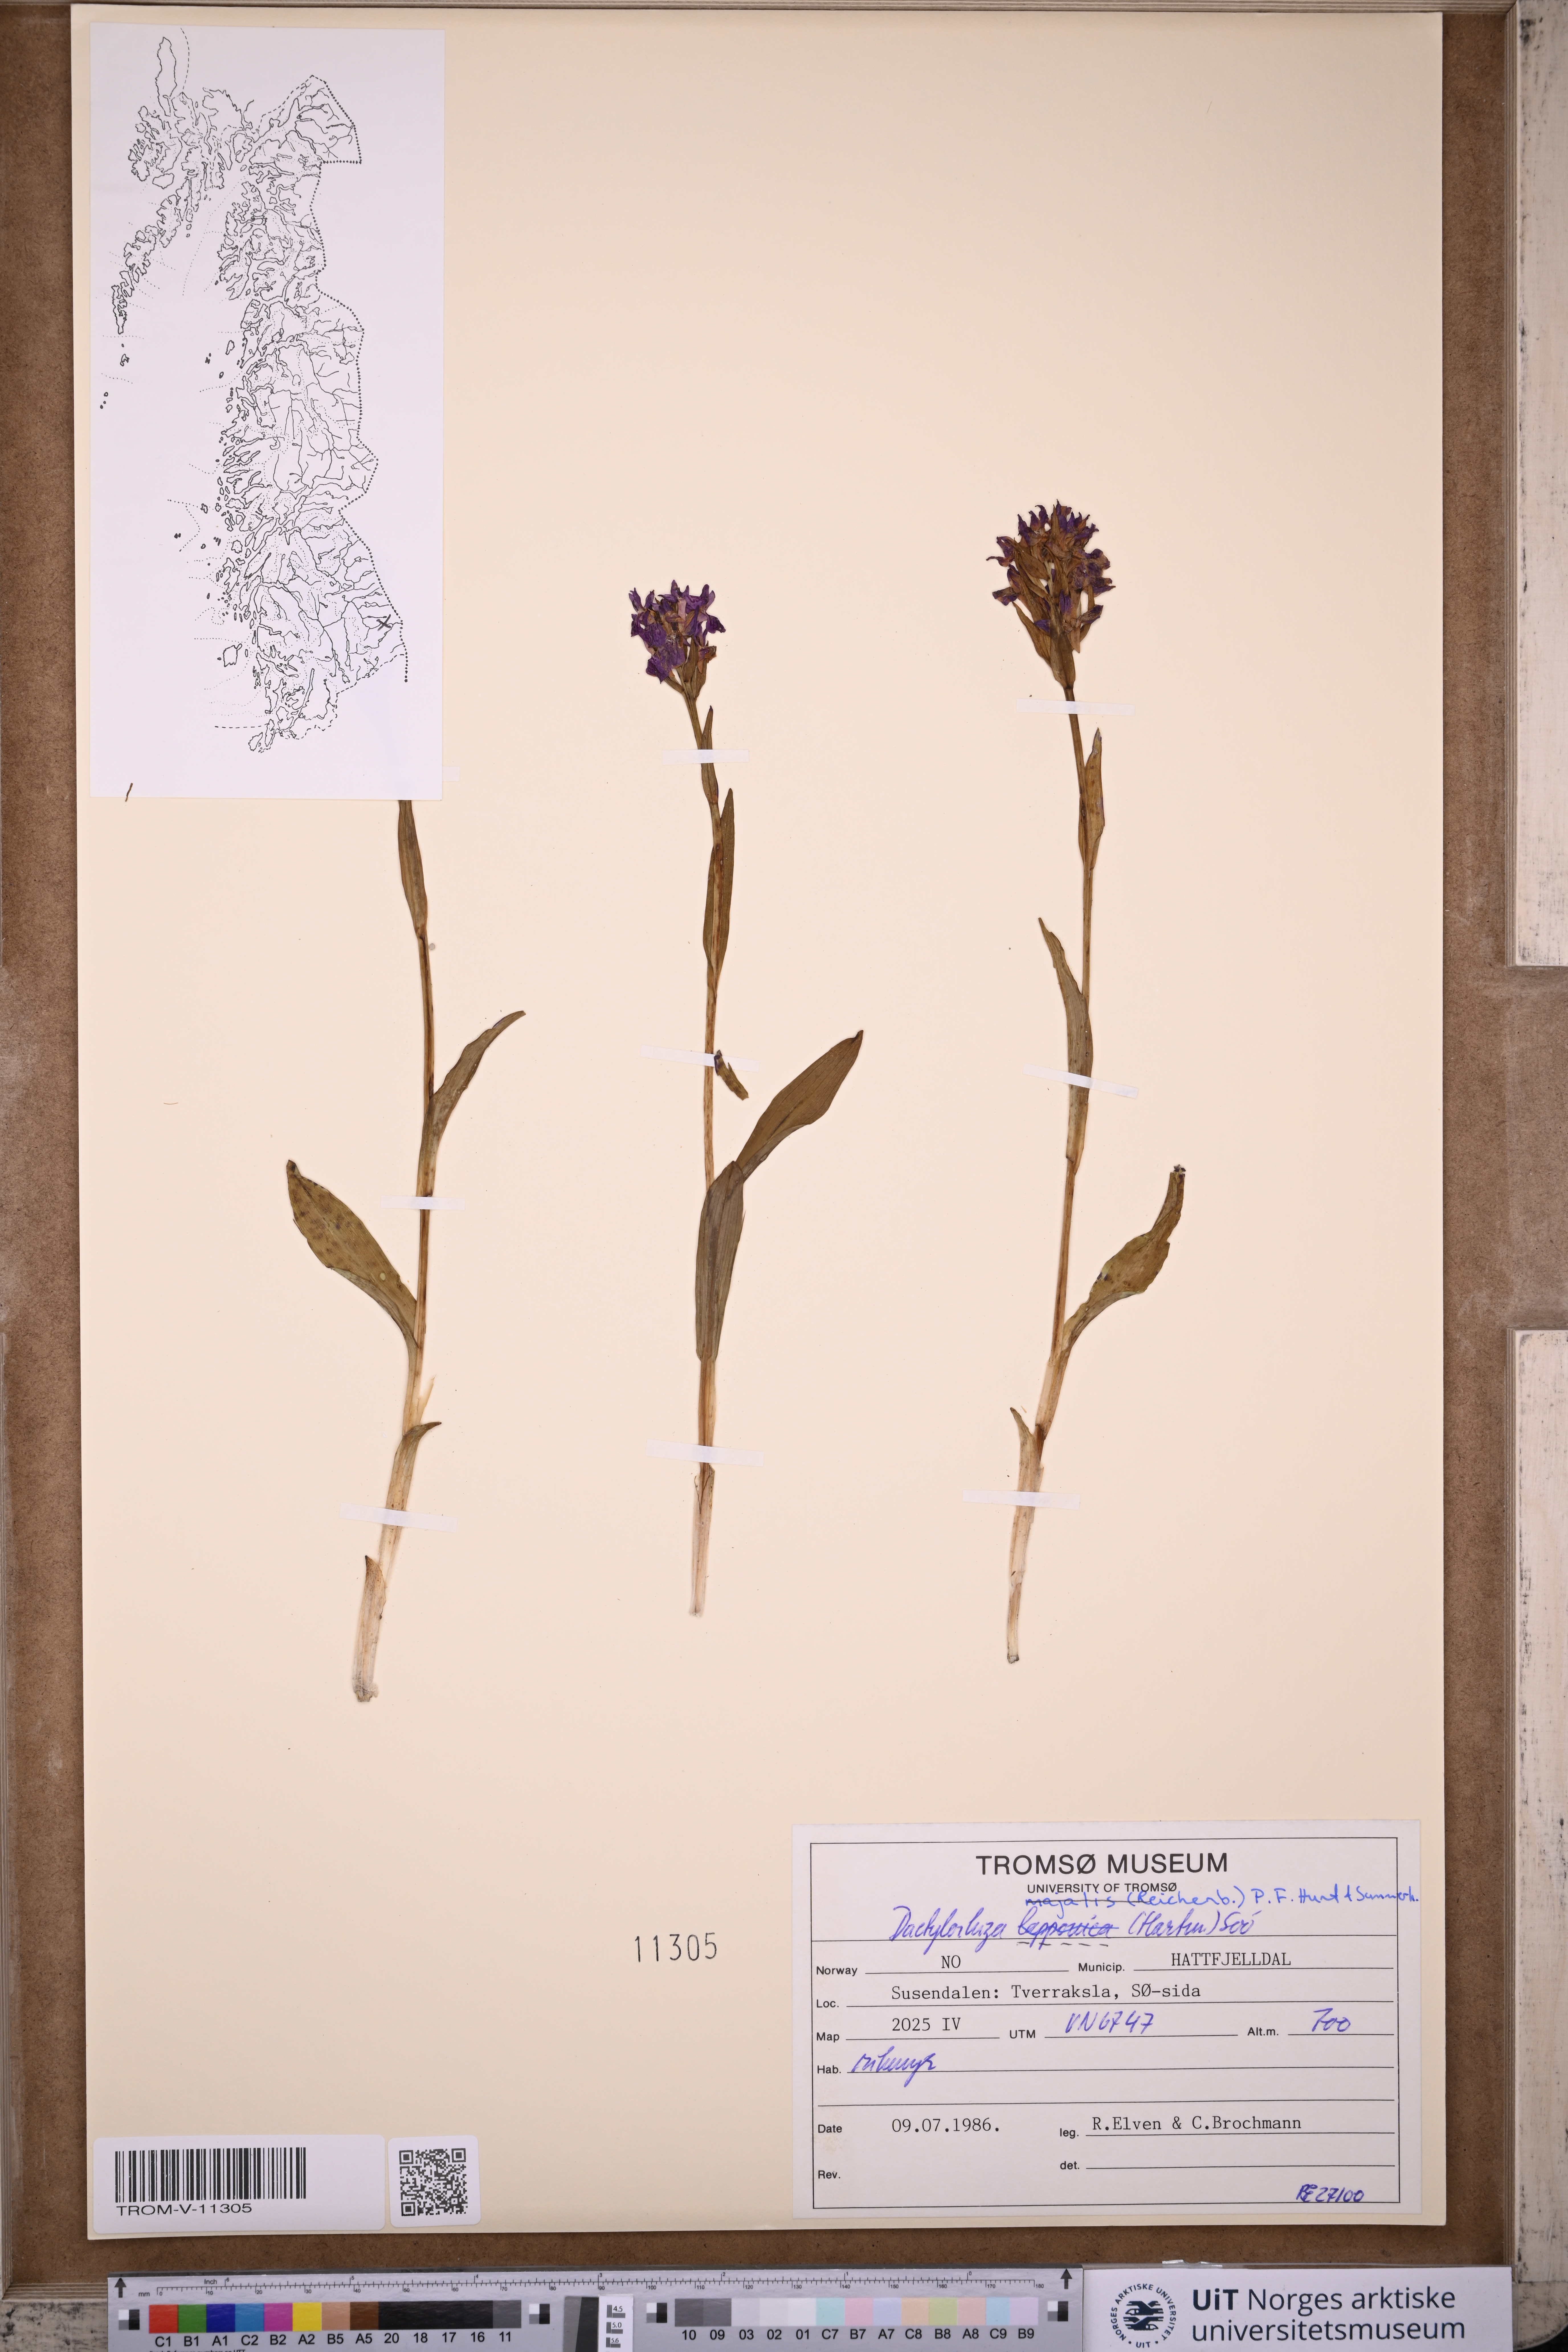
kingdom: Plantae
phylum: Tracheophyta
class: Liliopsida
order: Asparagales
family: Orchidaceae
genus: Dactylorhiza
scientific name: Dactylorhiza majalis
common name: Marsh orchid
